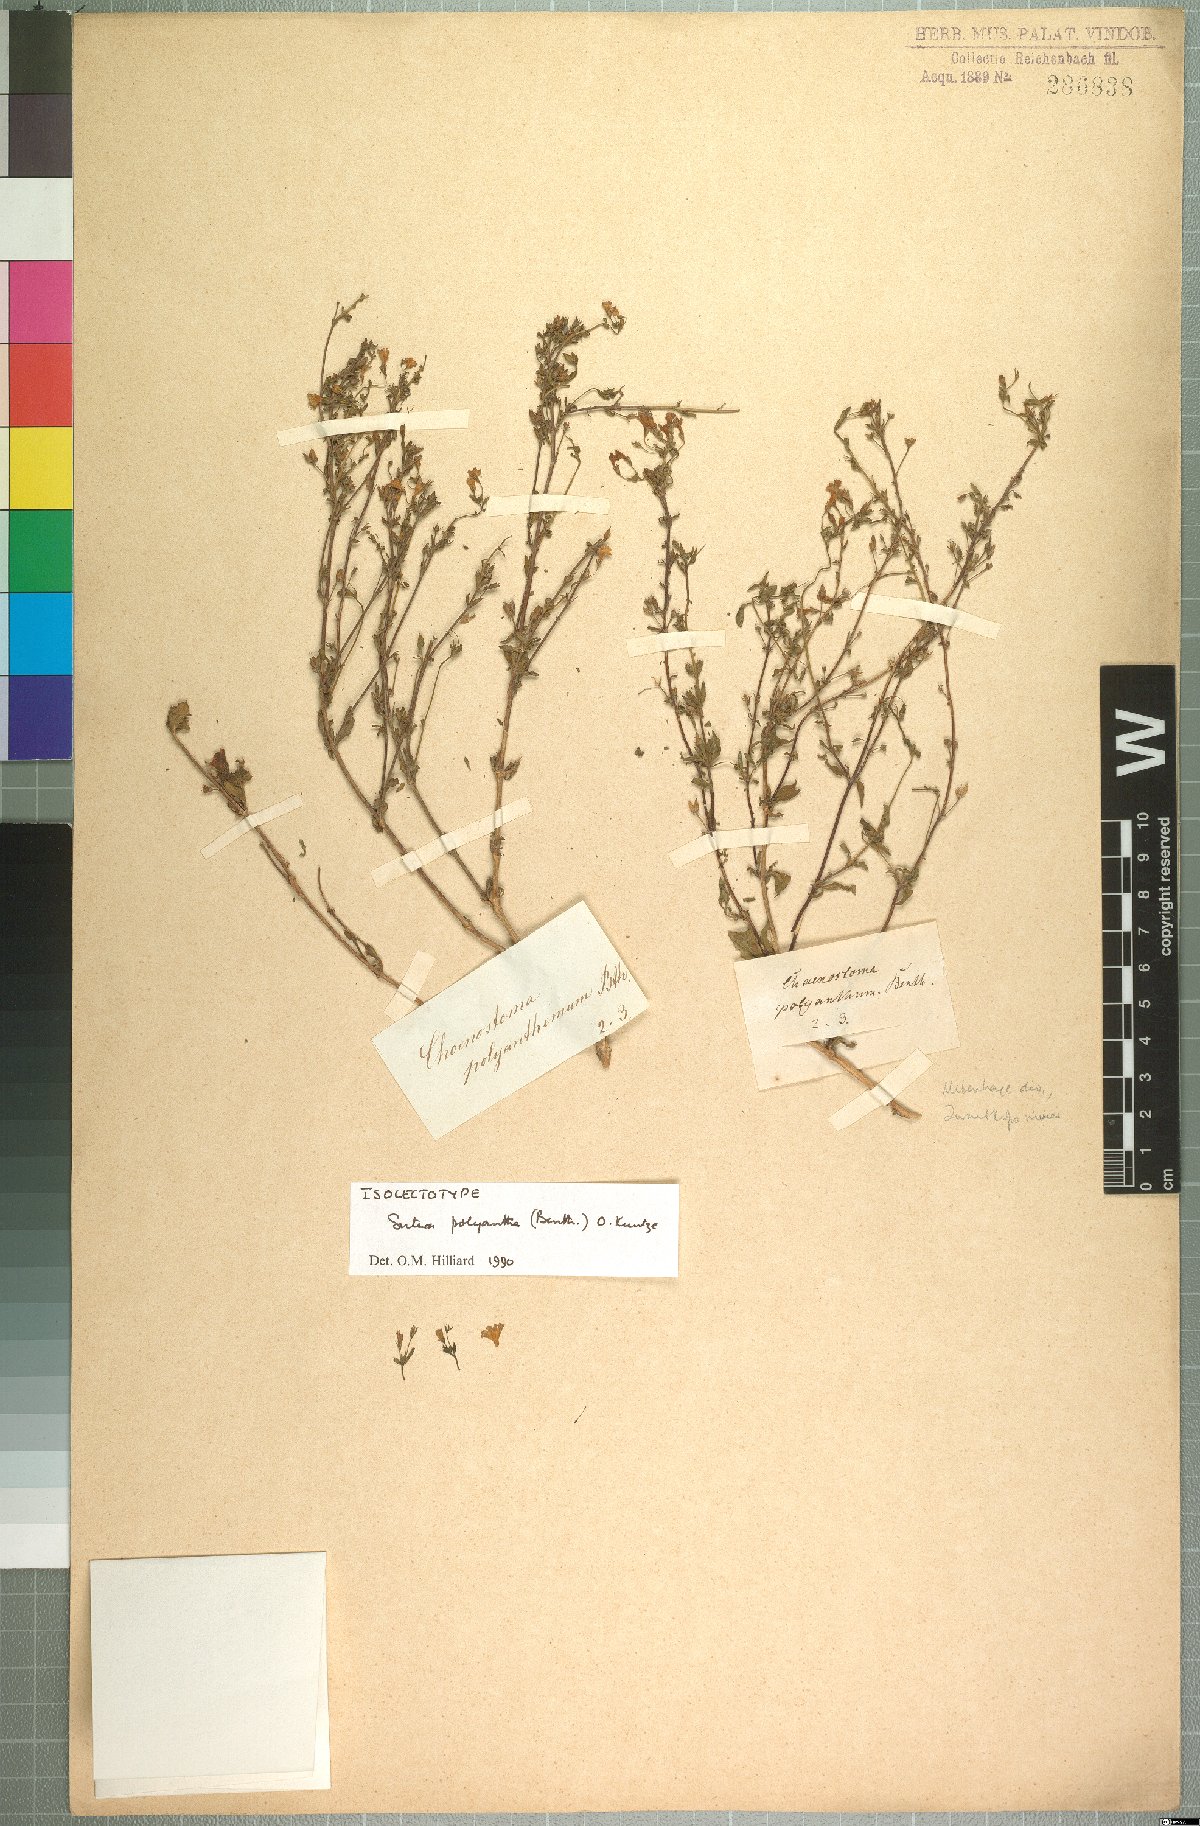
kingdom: Plantae
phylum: Tracheophyta
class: Magnoliopsida
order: Lamiales
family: Scrophulariaceae
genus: Chaenostoma
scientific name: Chaenostoma polyanthum
